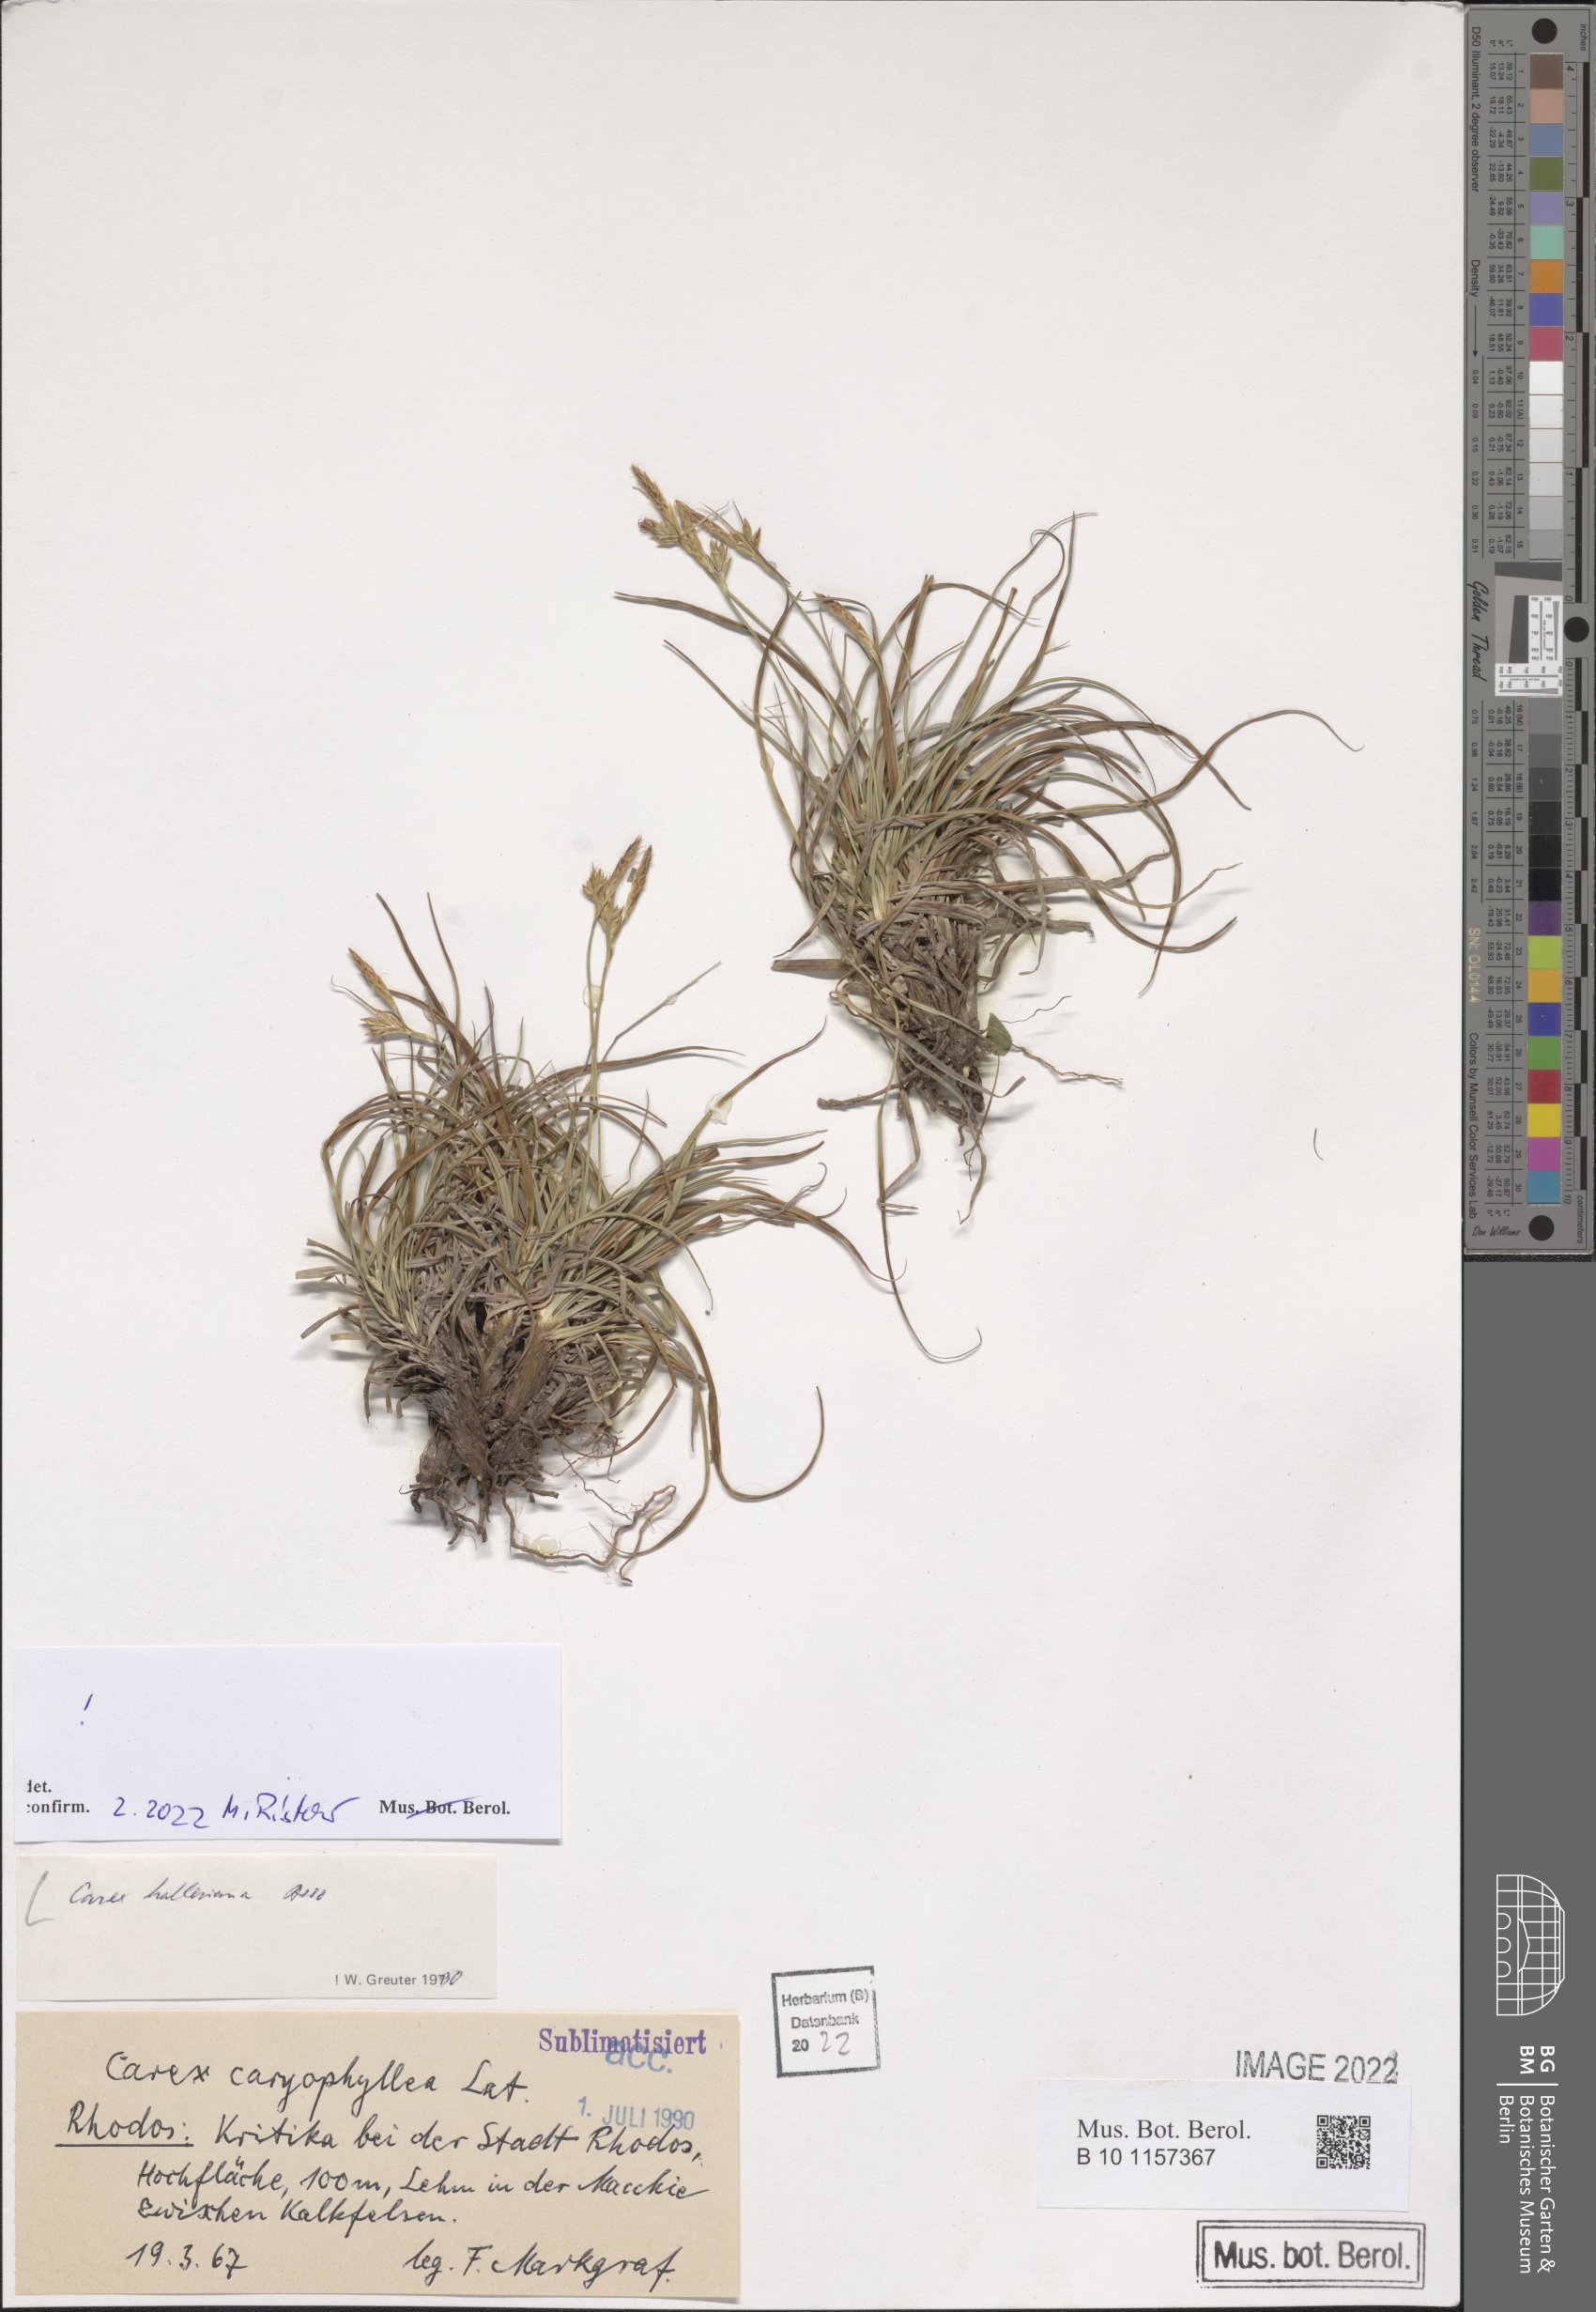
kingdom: Plantae
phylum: Tracheophyta
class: Liliopsida
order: Poales
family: Cyperaceae
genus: Carex
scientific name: Carex halleriana
